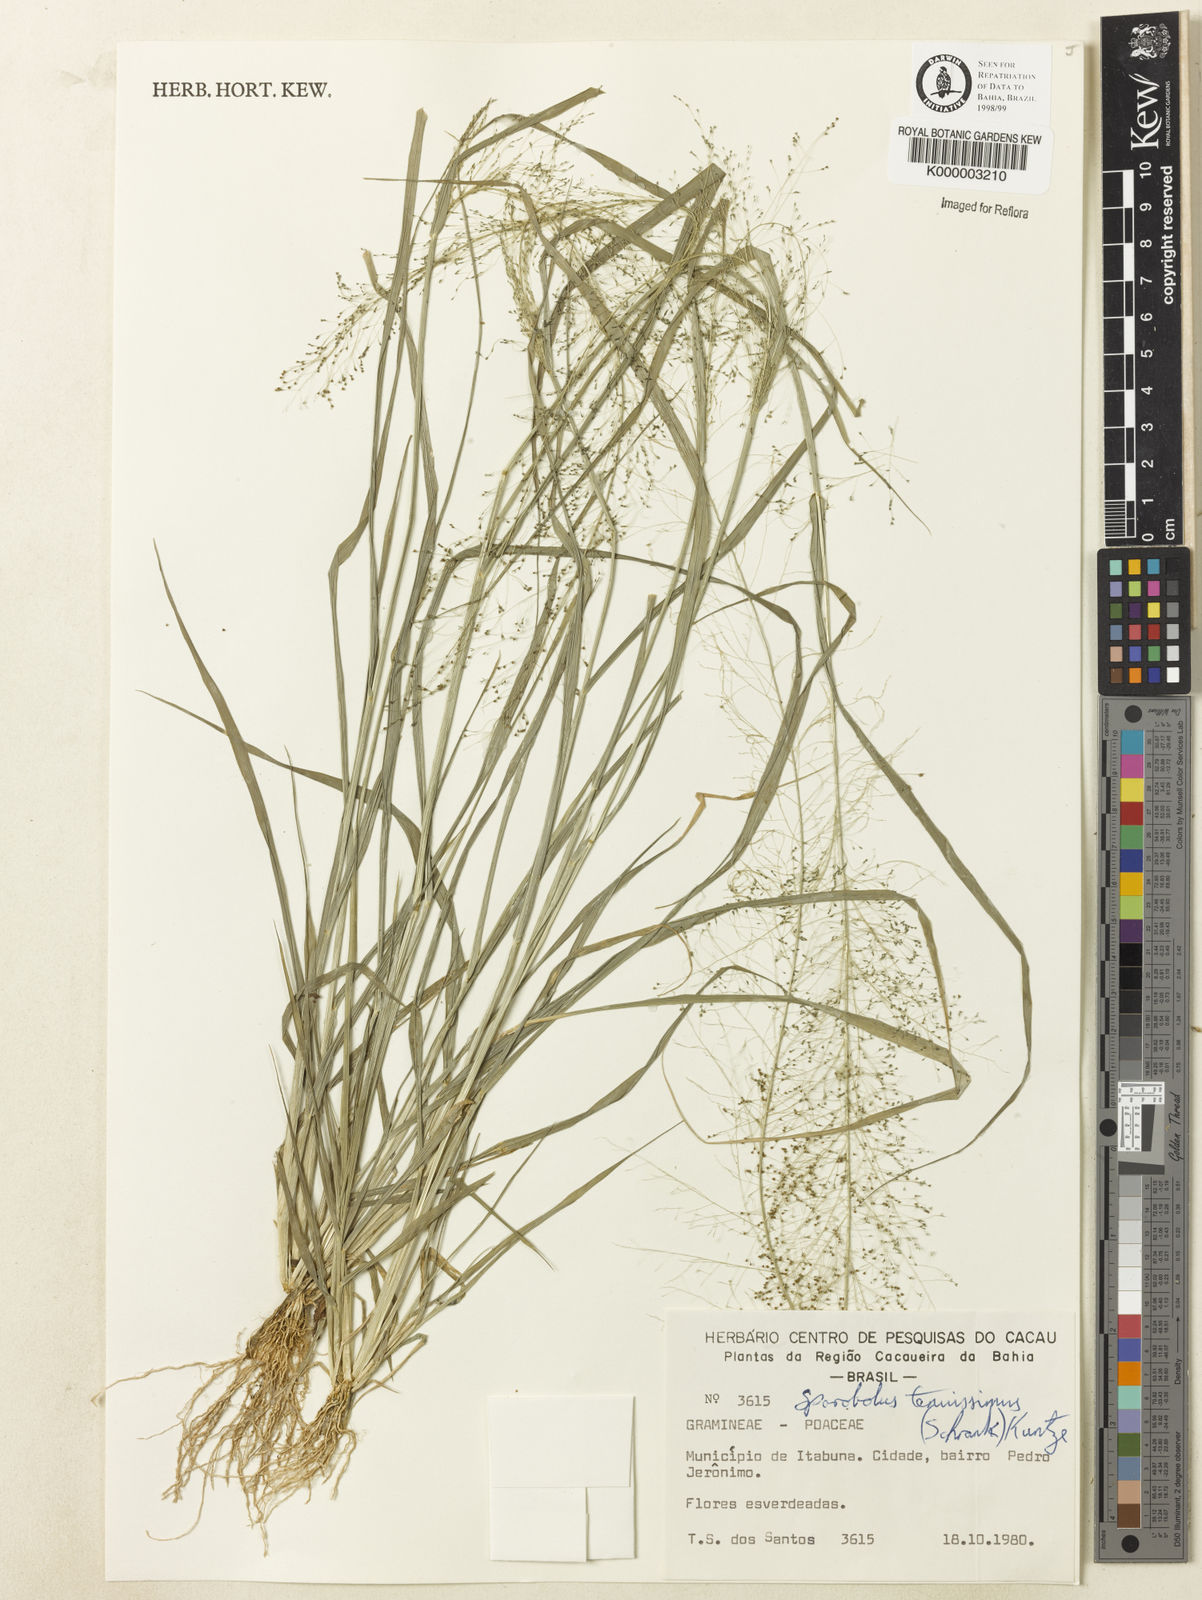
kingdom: Plantae
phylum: Tracheophyta
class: Liliopsida
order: Poales
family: Poaceae
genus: Sporobolus
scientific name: Sporobolus tenuissimus
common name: Tropical dropseed
